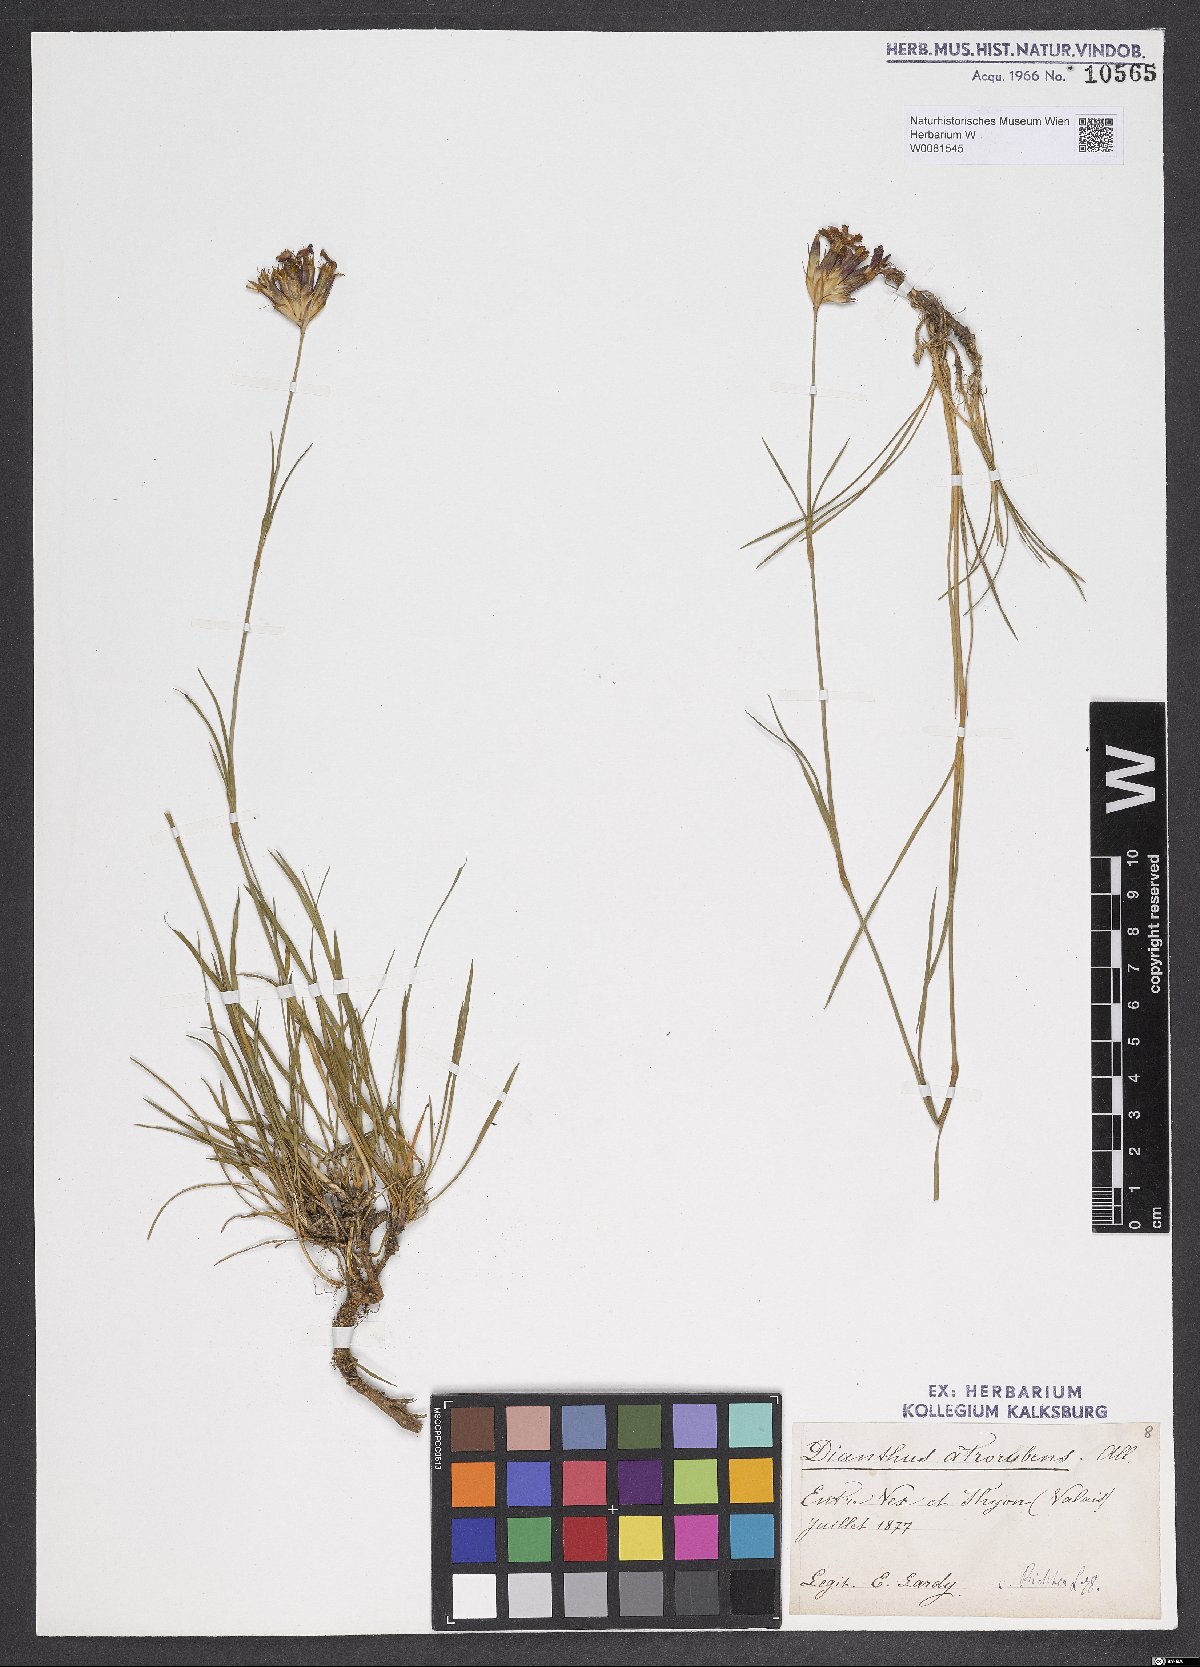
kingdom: Plantae
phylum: Tracheophyta
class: Magnoliopsida
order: Caryophyllales
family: Caryophyllaceae
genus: Dianthus
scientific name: Dianthus carthusianorum
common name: Carthusian pink
